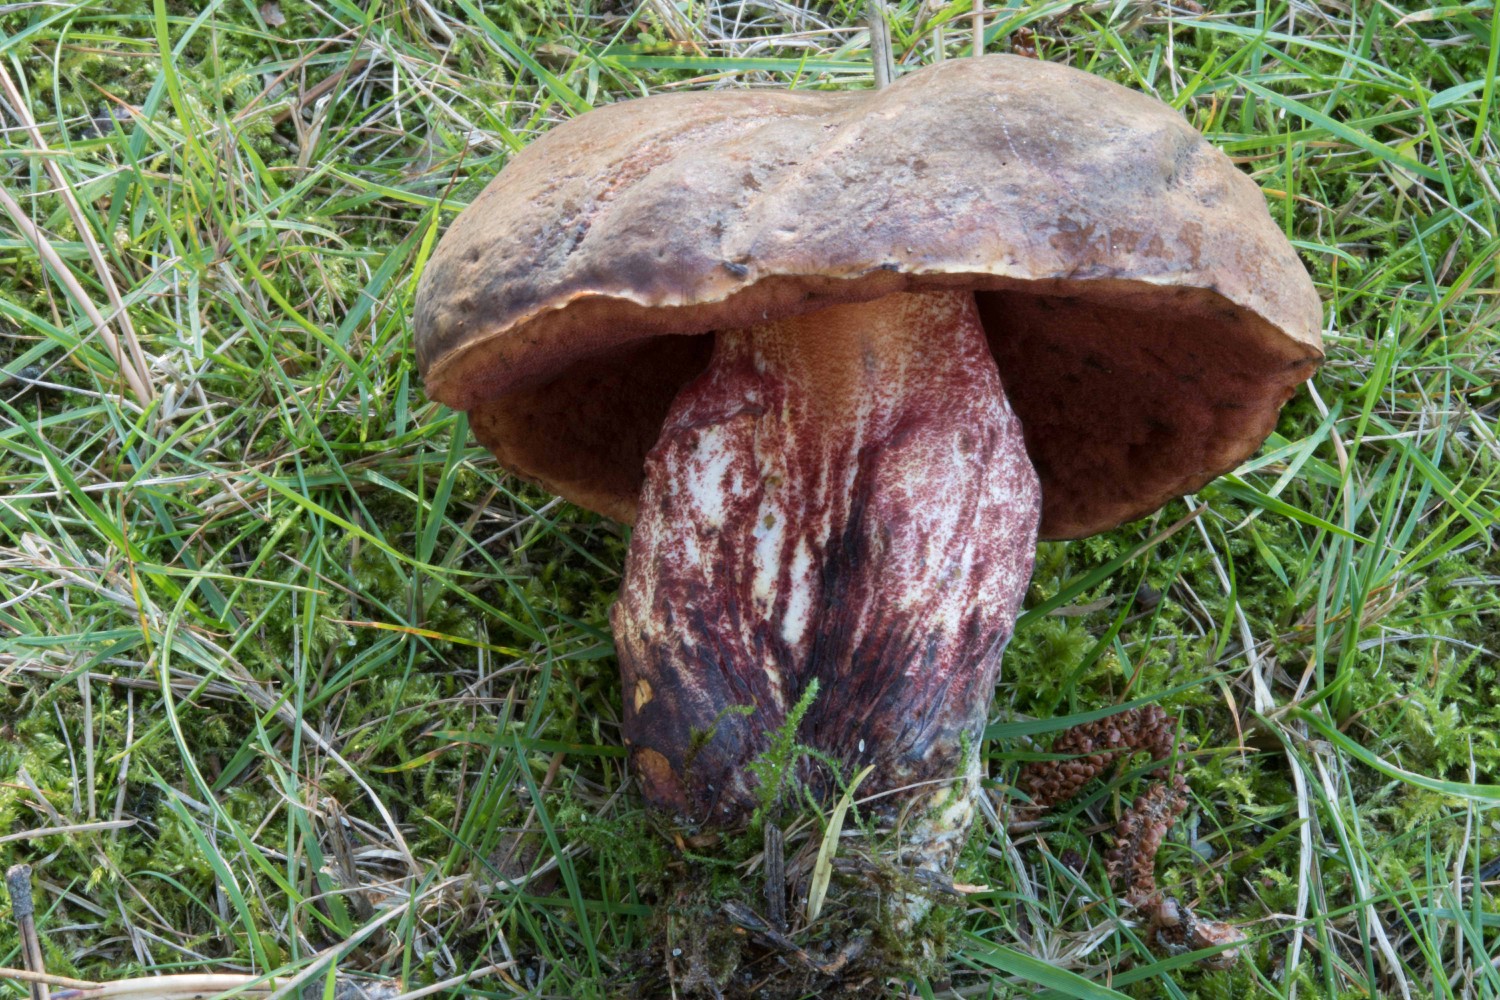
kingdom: Fungi
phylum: Basidiomycota
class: Agaricomycetes
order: Boletales
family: Boletaceae
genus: Neoboletus
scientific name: Neoboletus erythropus
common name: punktstokket indigorørhat
